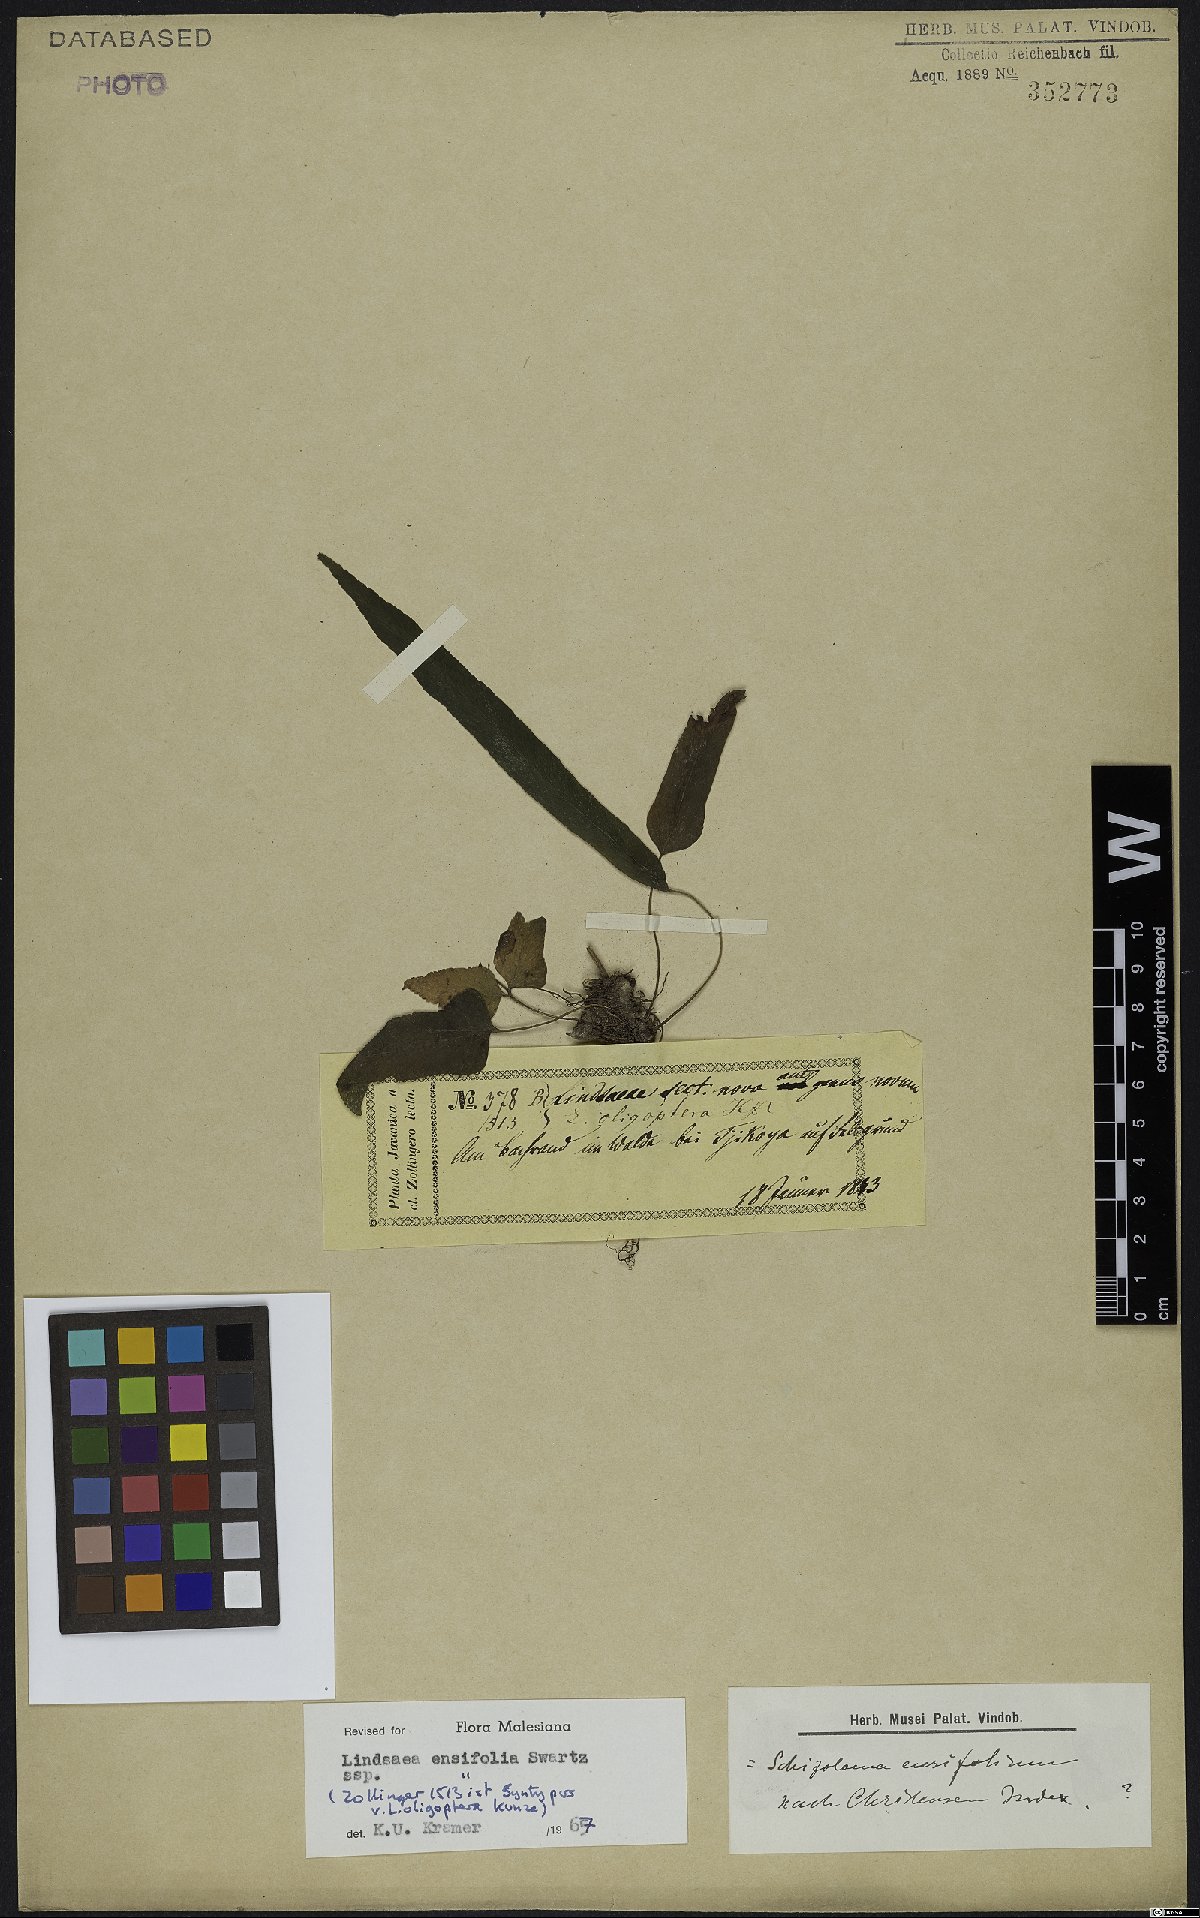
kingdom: Plantae
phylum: Tracheophyta
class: Polypodiopsida
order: Polypodiales
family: Lindsaeaceae
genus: Lindsaea
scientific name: Lindsaea ensifolia
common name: Graceful necklace fern
